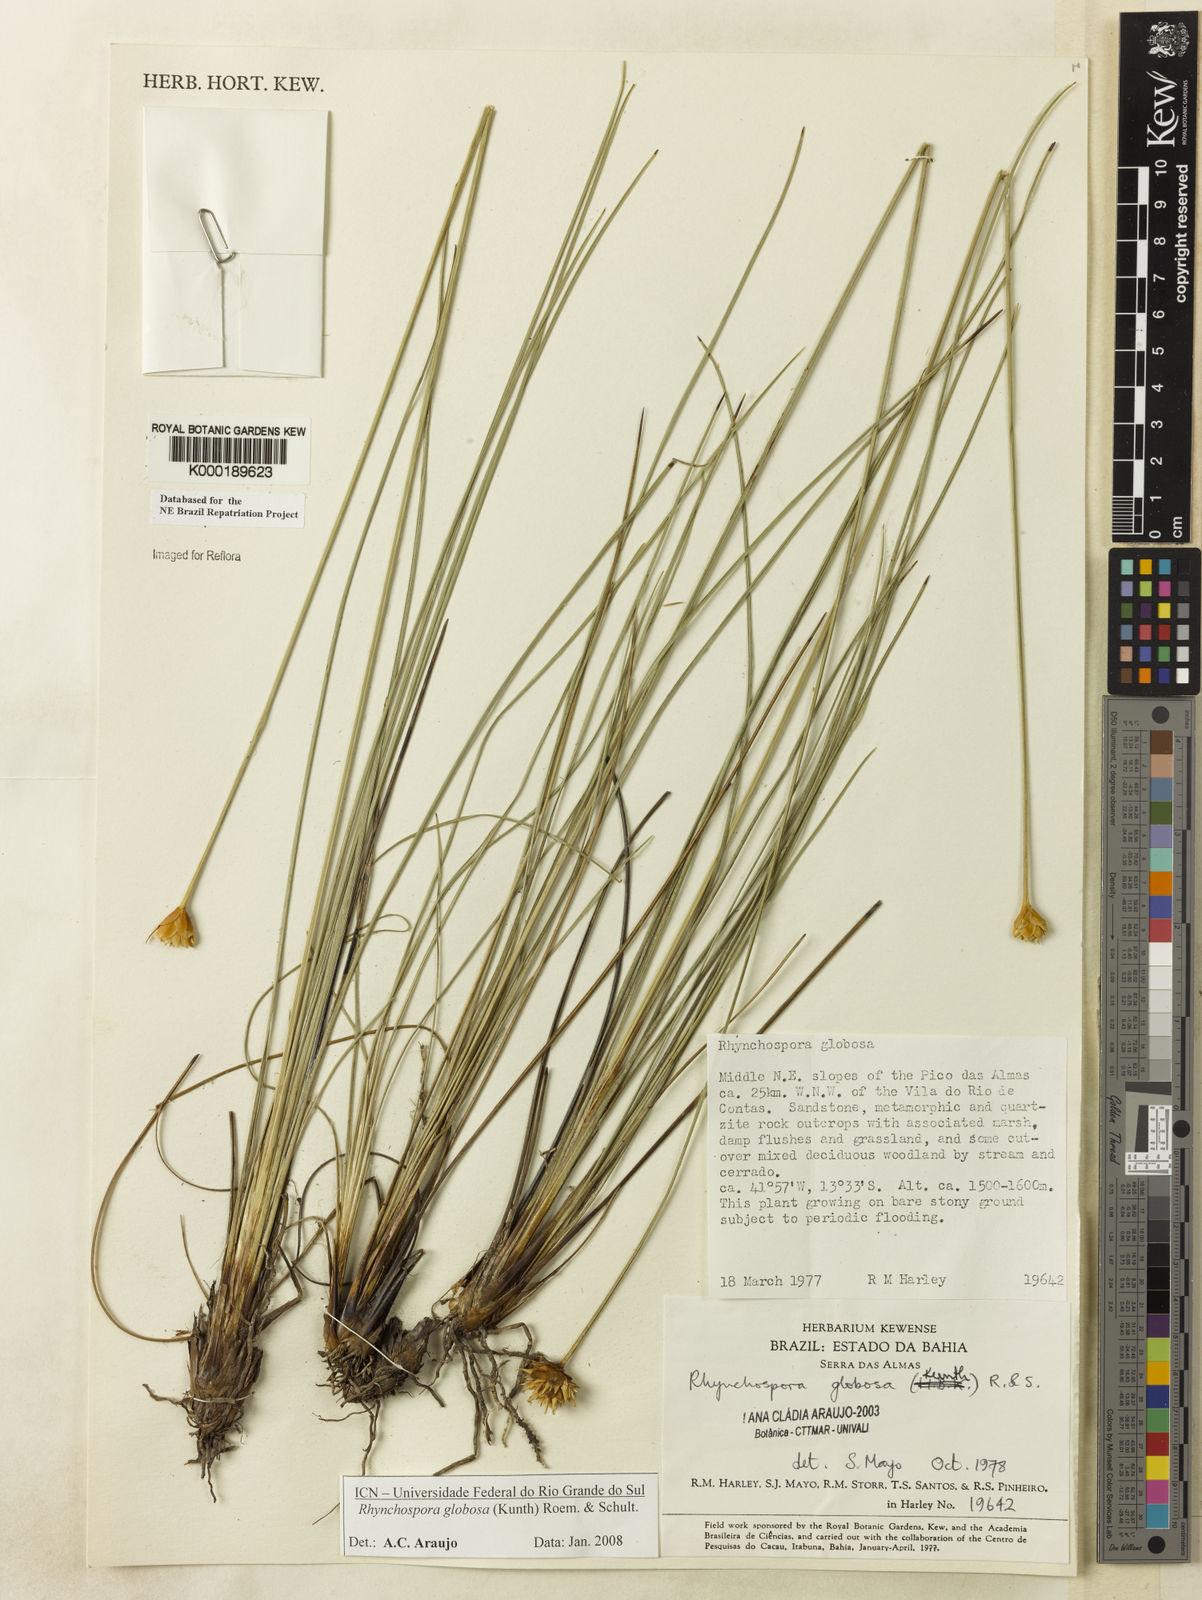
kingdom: Plantae
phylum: Tracheophyta
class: Liliopsida
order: Poales
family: Cyperaceae
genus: Rhynchospora
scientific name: Rhynchospora globosa
